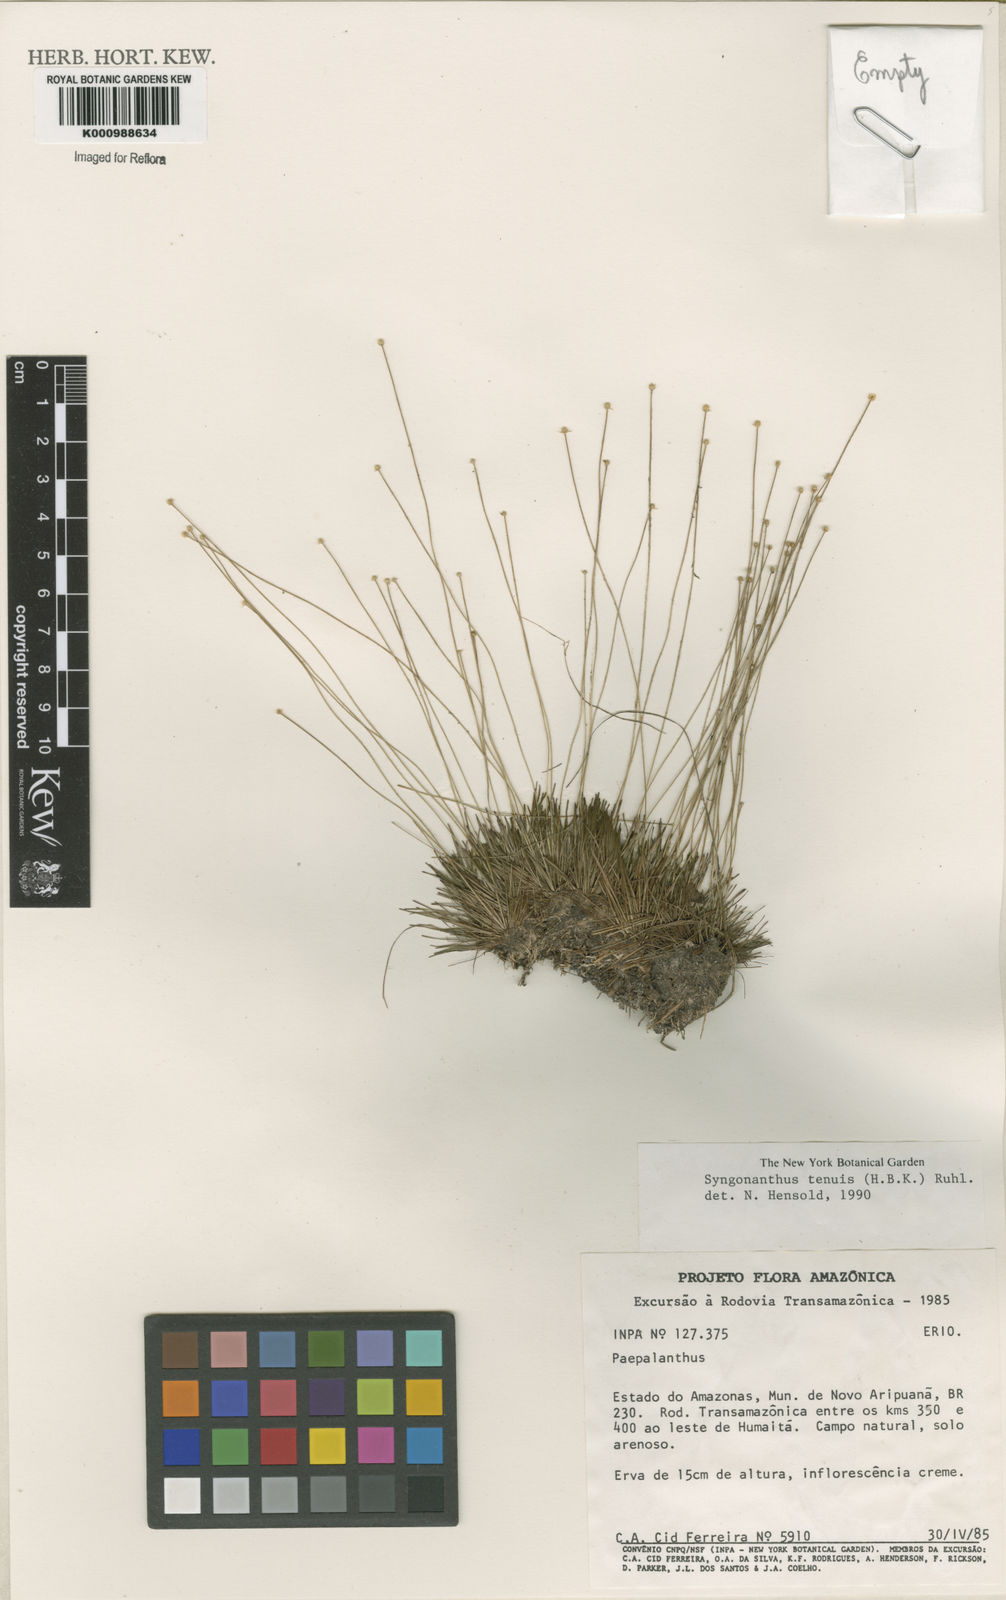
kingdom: Plantae
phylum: Tracheophyta
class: Liliopsida
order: Poales
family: Eriocaulaceae
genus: Syngonanthus
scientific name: Syngonanthus tenuis
